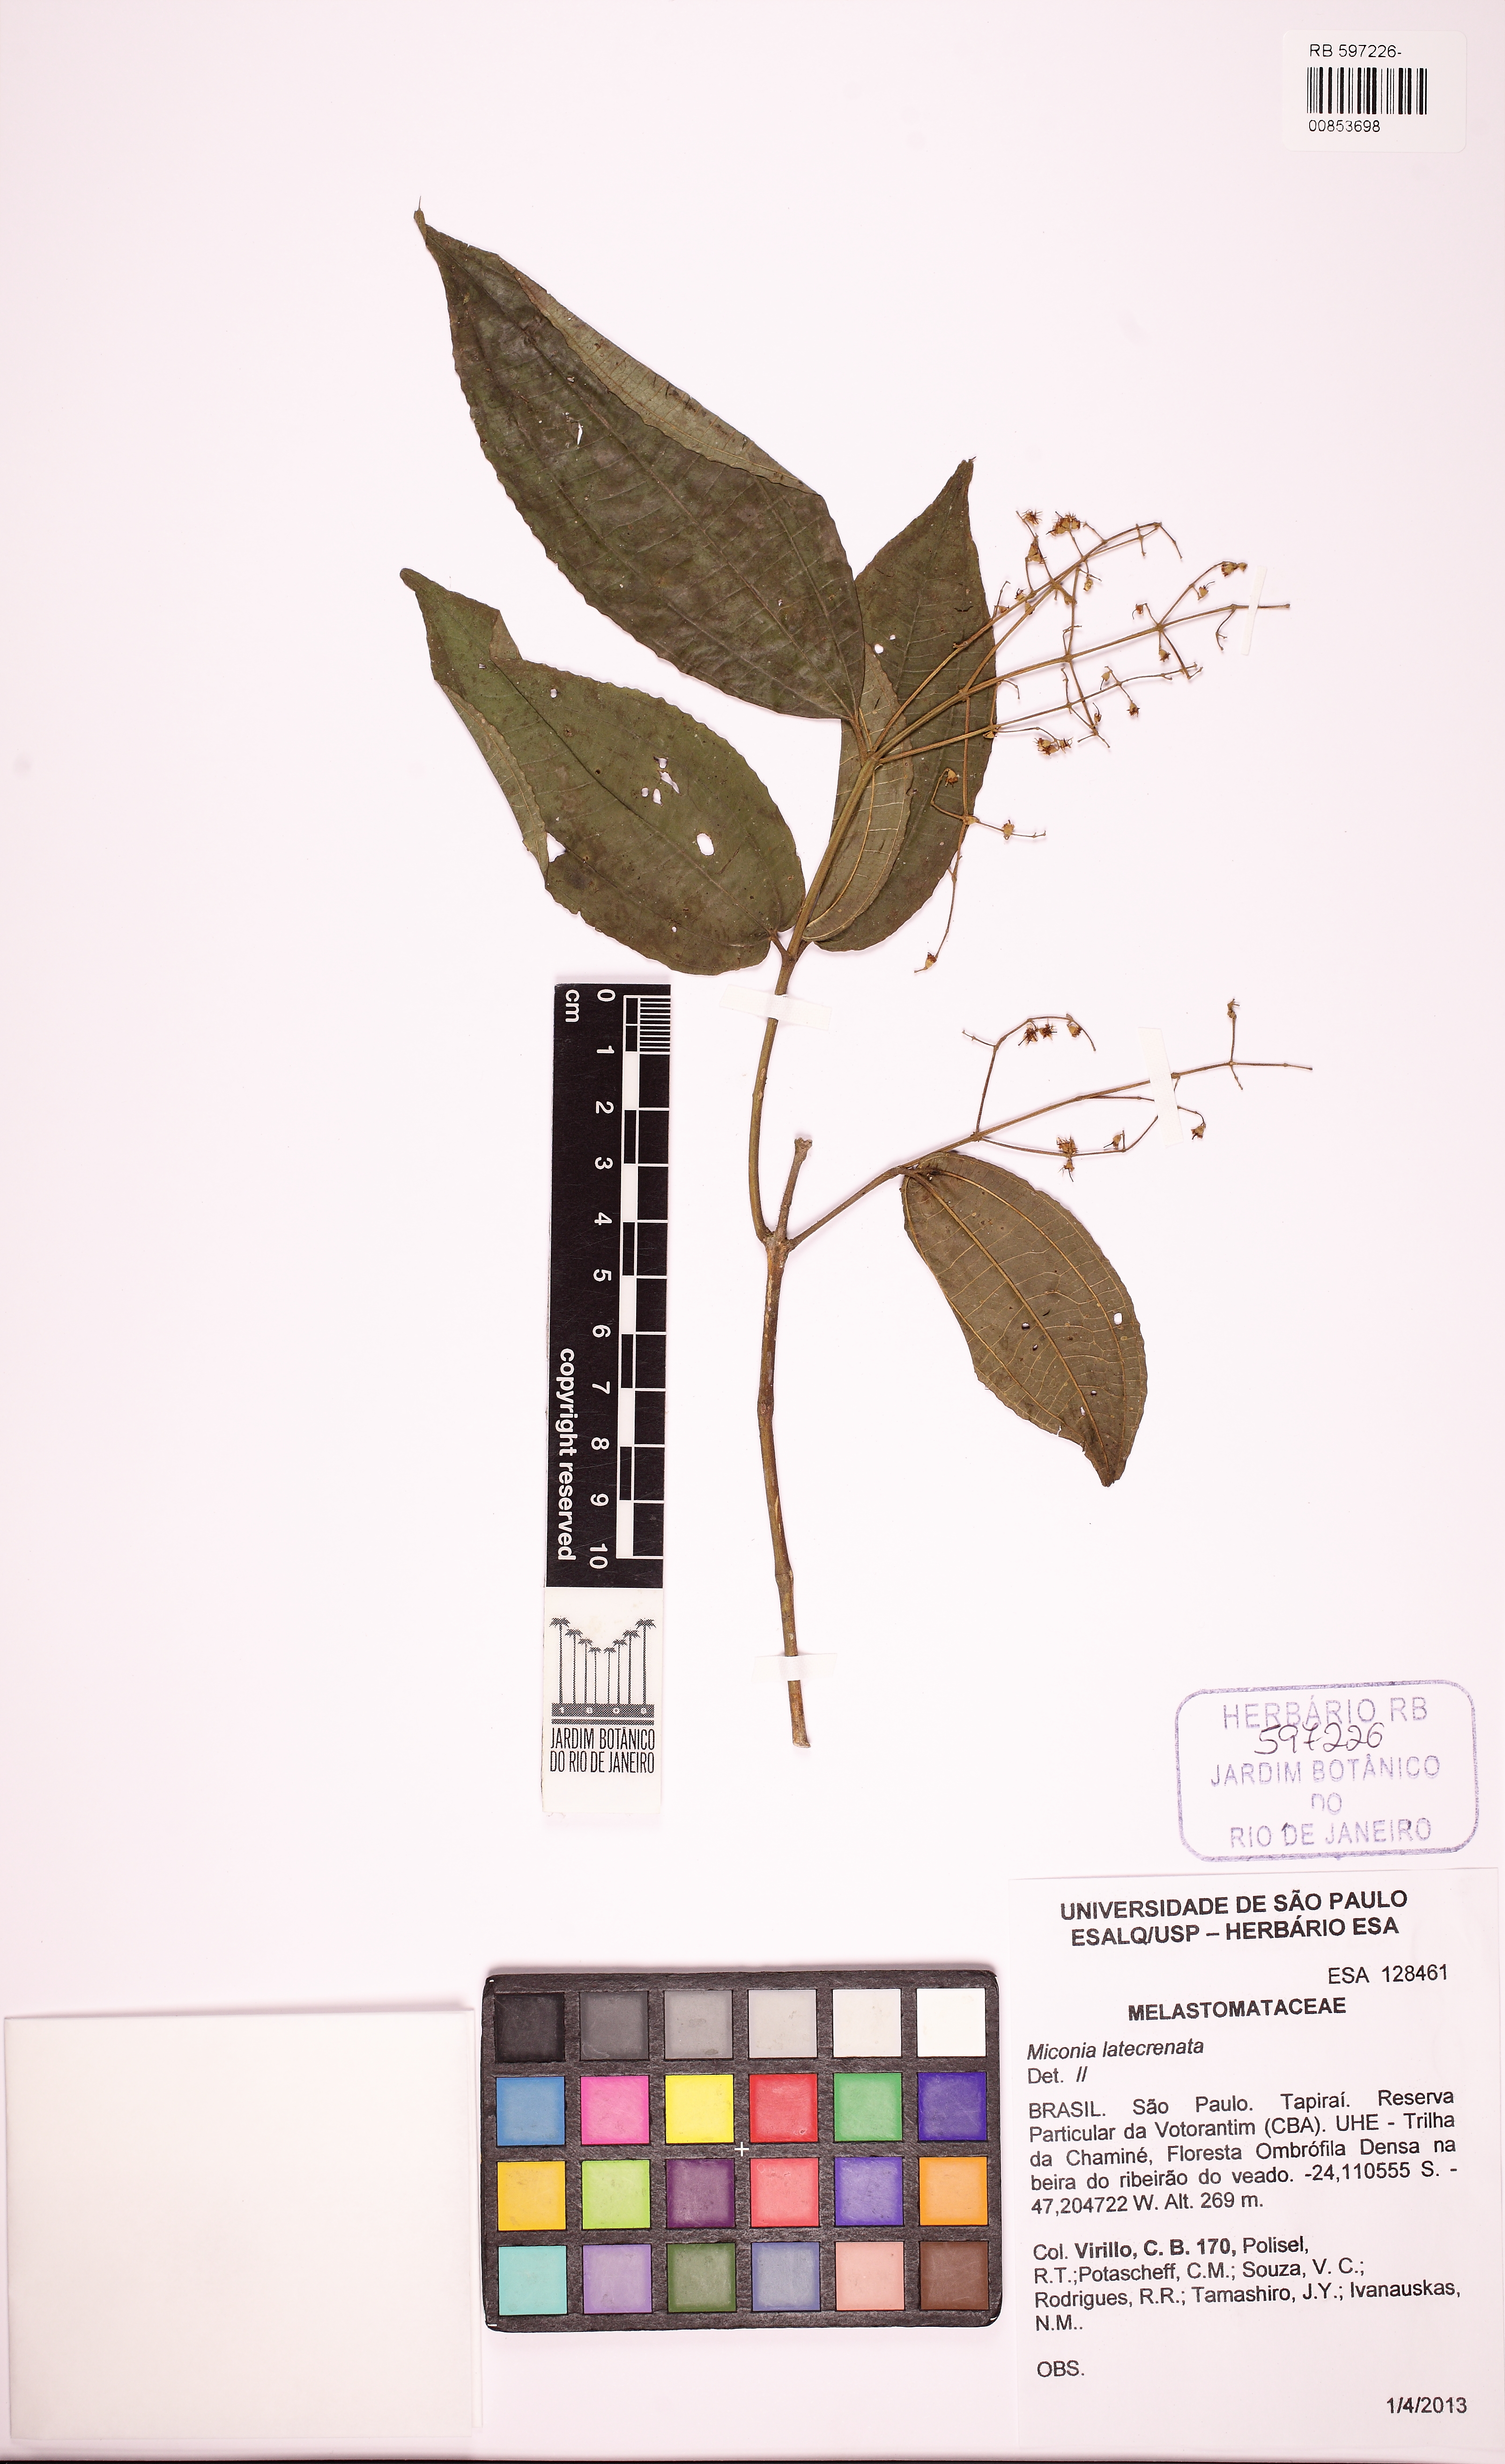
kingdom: Plantae
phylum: Tracheophyta
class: Magnoliopsida
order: Myrtales
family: Melastomataceae
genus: Miconia
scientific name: Miconia latecrenata
